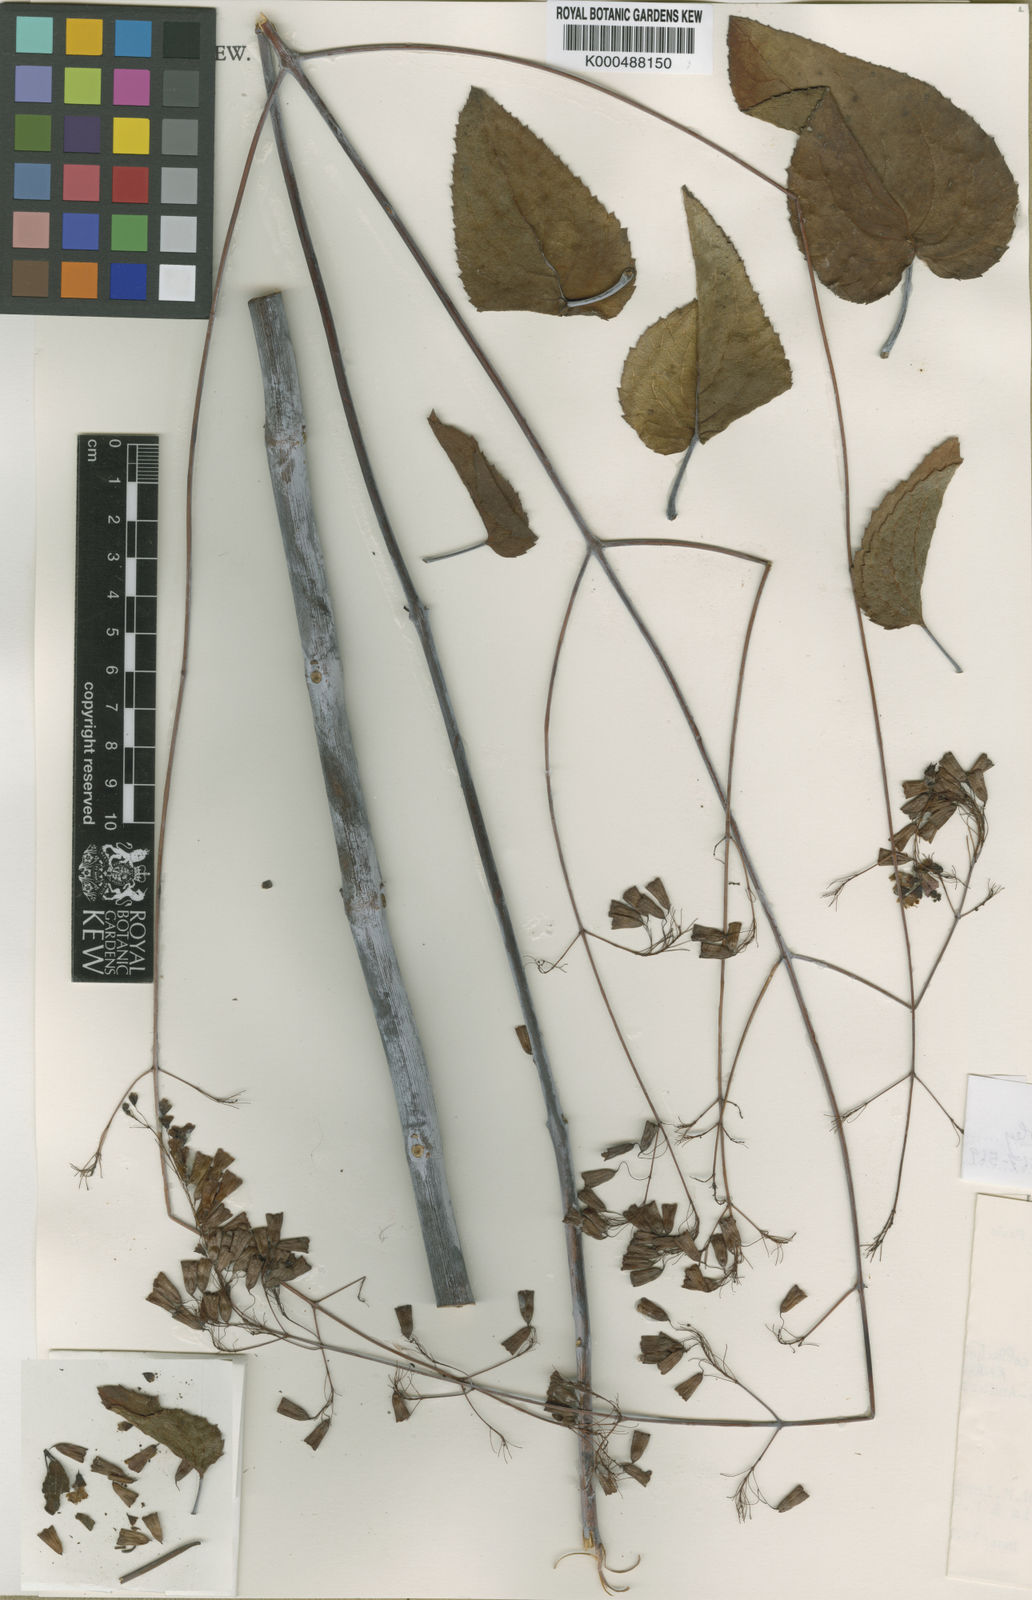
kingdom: Plantae
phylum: Tracheophyta
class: Magnoliopsida
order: Lamiales
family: Lamiaceae
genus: Eriope
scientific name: Eriope confusa
